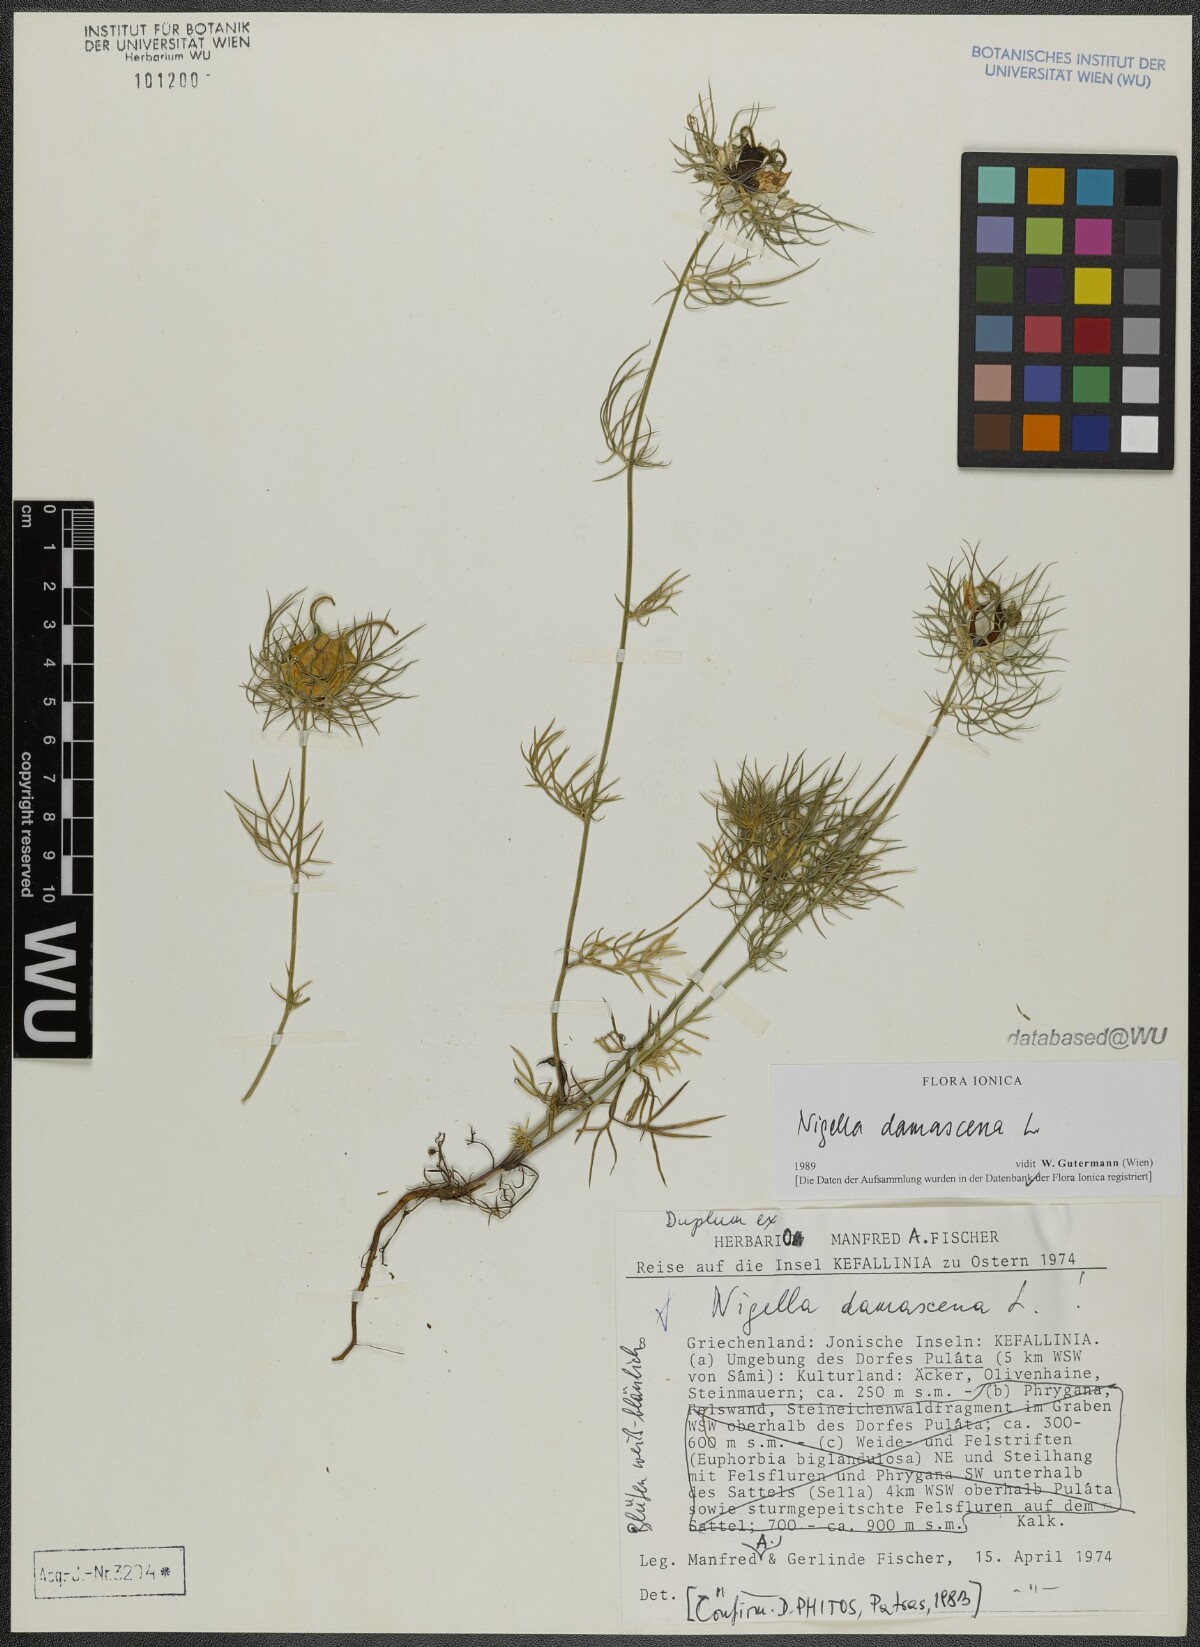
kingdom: Plantae
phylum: Tracheophyta
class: Magnoliopsida
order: Ranunculales
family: Ranunculaceae
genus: Nigella
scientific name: Nigella damascena
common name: Love-in-a-mist
